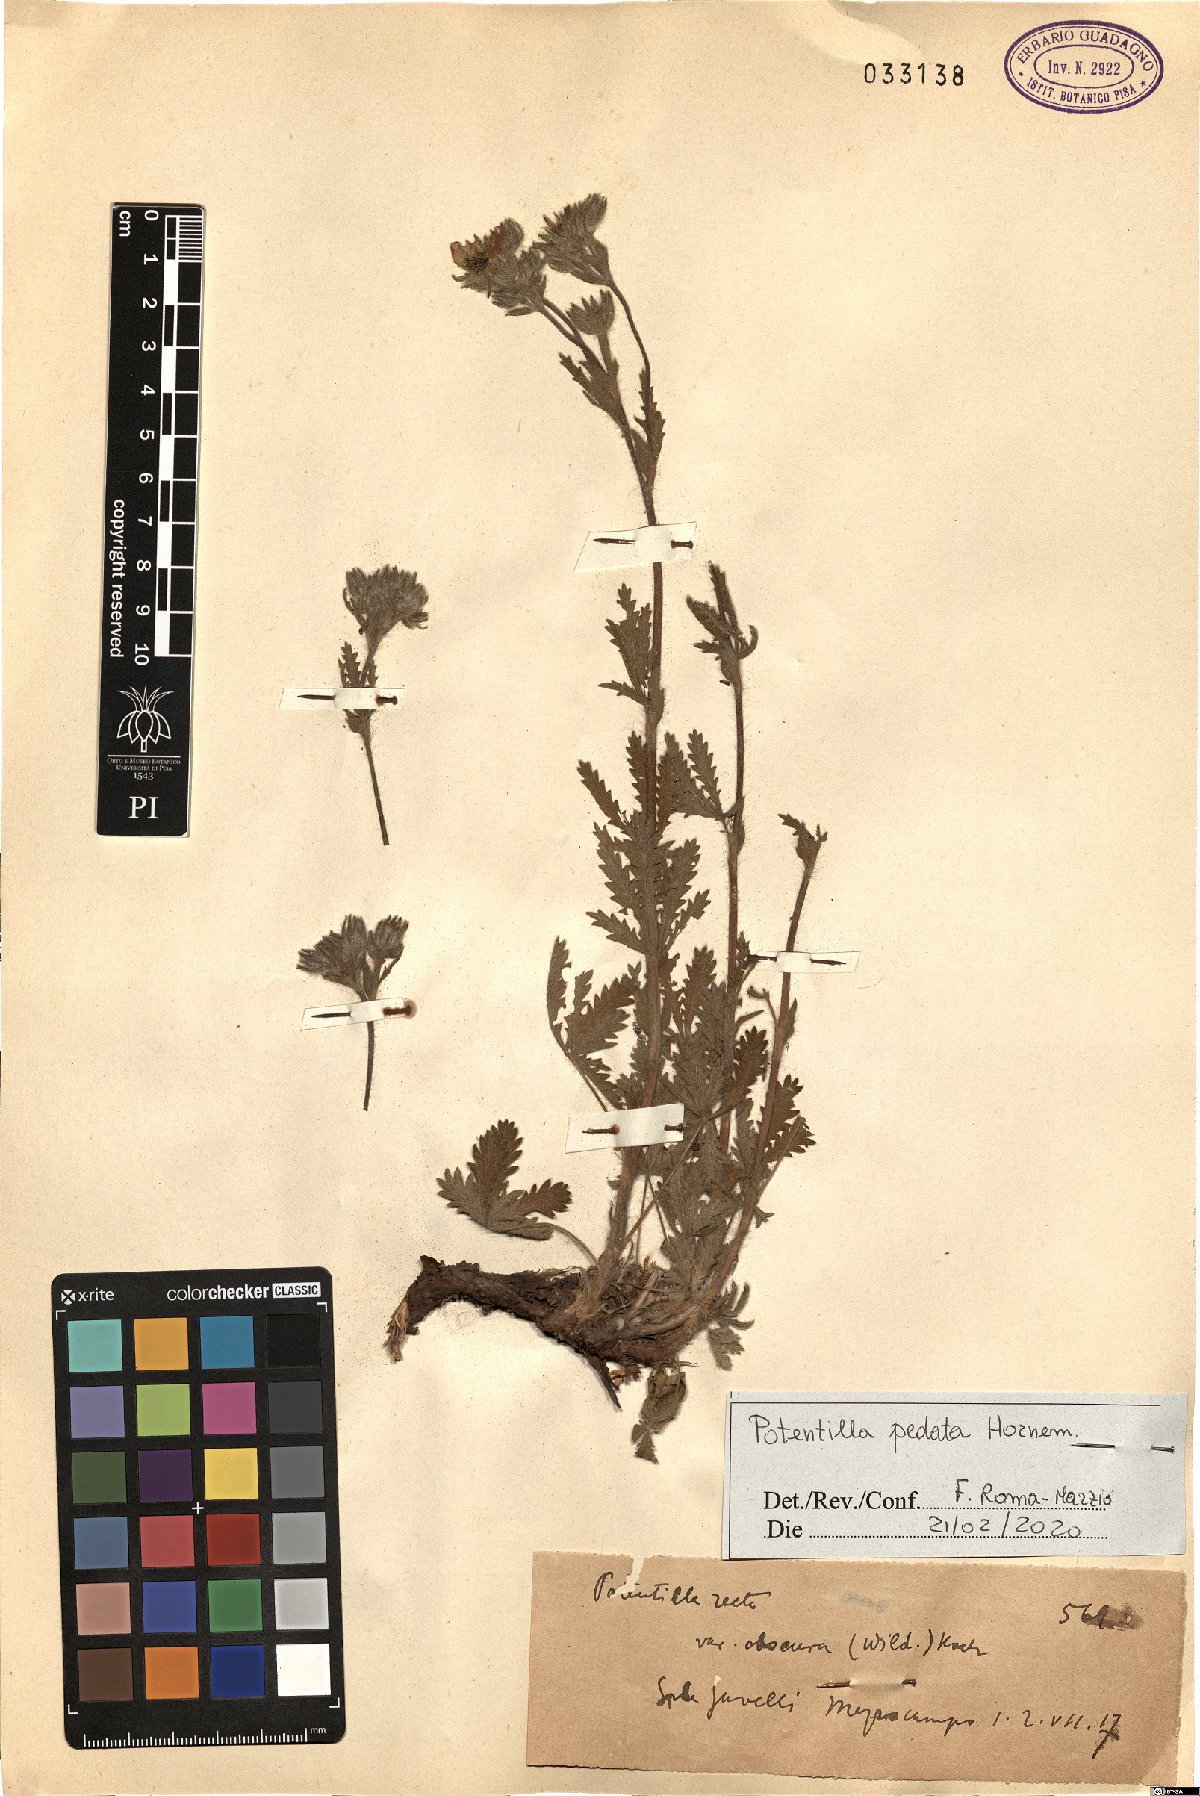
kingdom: Plantae
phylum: Tracheophyta
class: Magnoliopsida
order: Rosales
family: Rosaceae
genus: Potentilla
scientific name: Potentilla pedata
